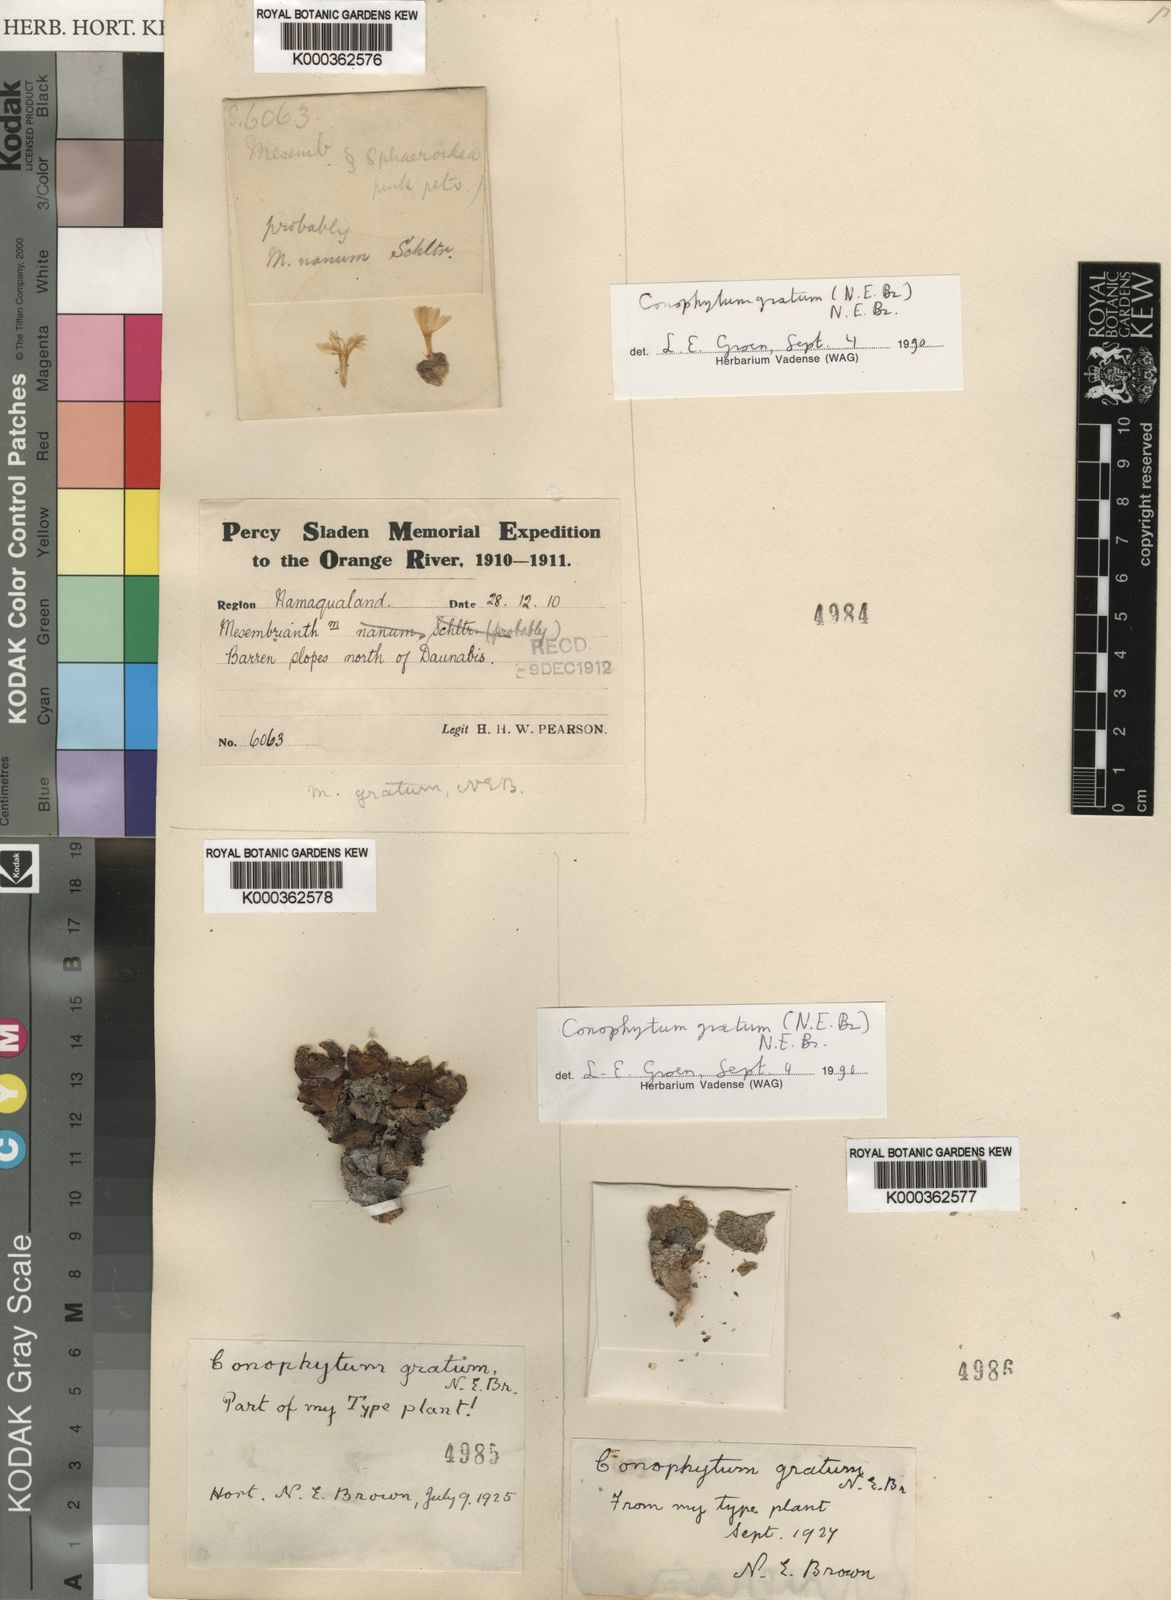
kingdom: Plantae
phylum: Tracheophyta
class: Magnoliopsida
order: Caryophyllales
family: Aizoaceae
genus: Conophytum
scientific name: Conophytum jucundum
